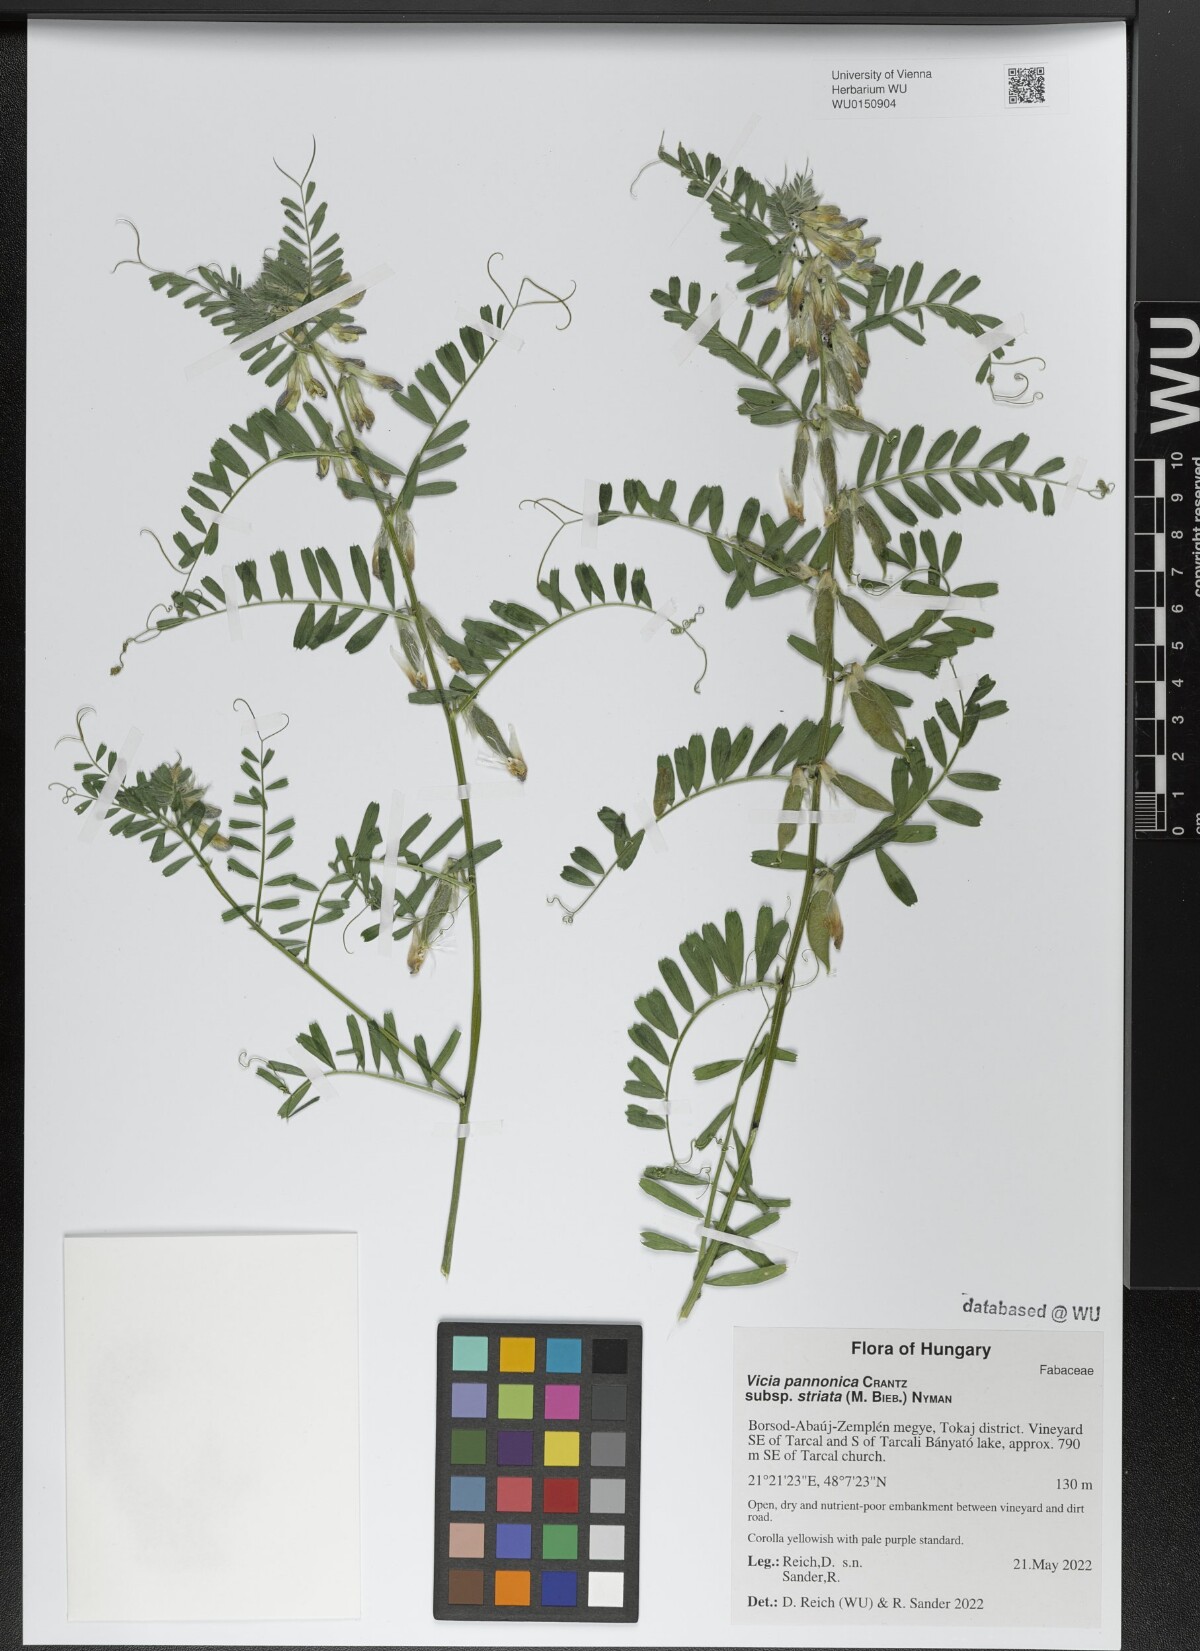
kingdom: Plantae
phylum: Tracheophyta
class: Magnoliopsida
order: Fabales
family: Fabaceae
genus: Vicia
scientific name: Vicia pannonica
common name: Hungarian vetch
